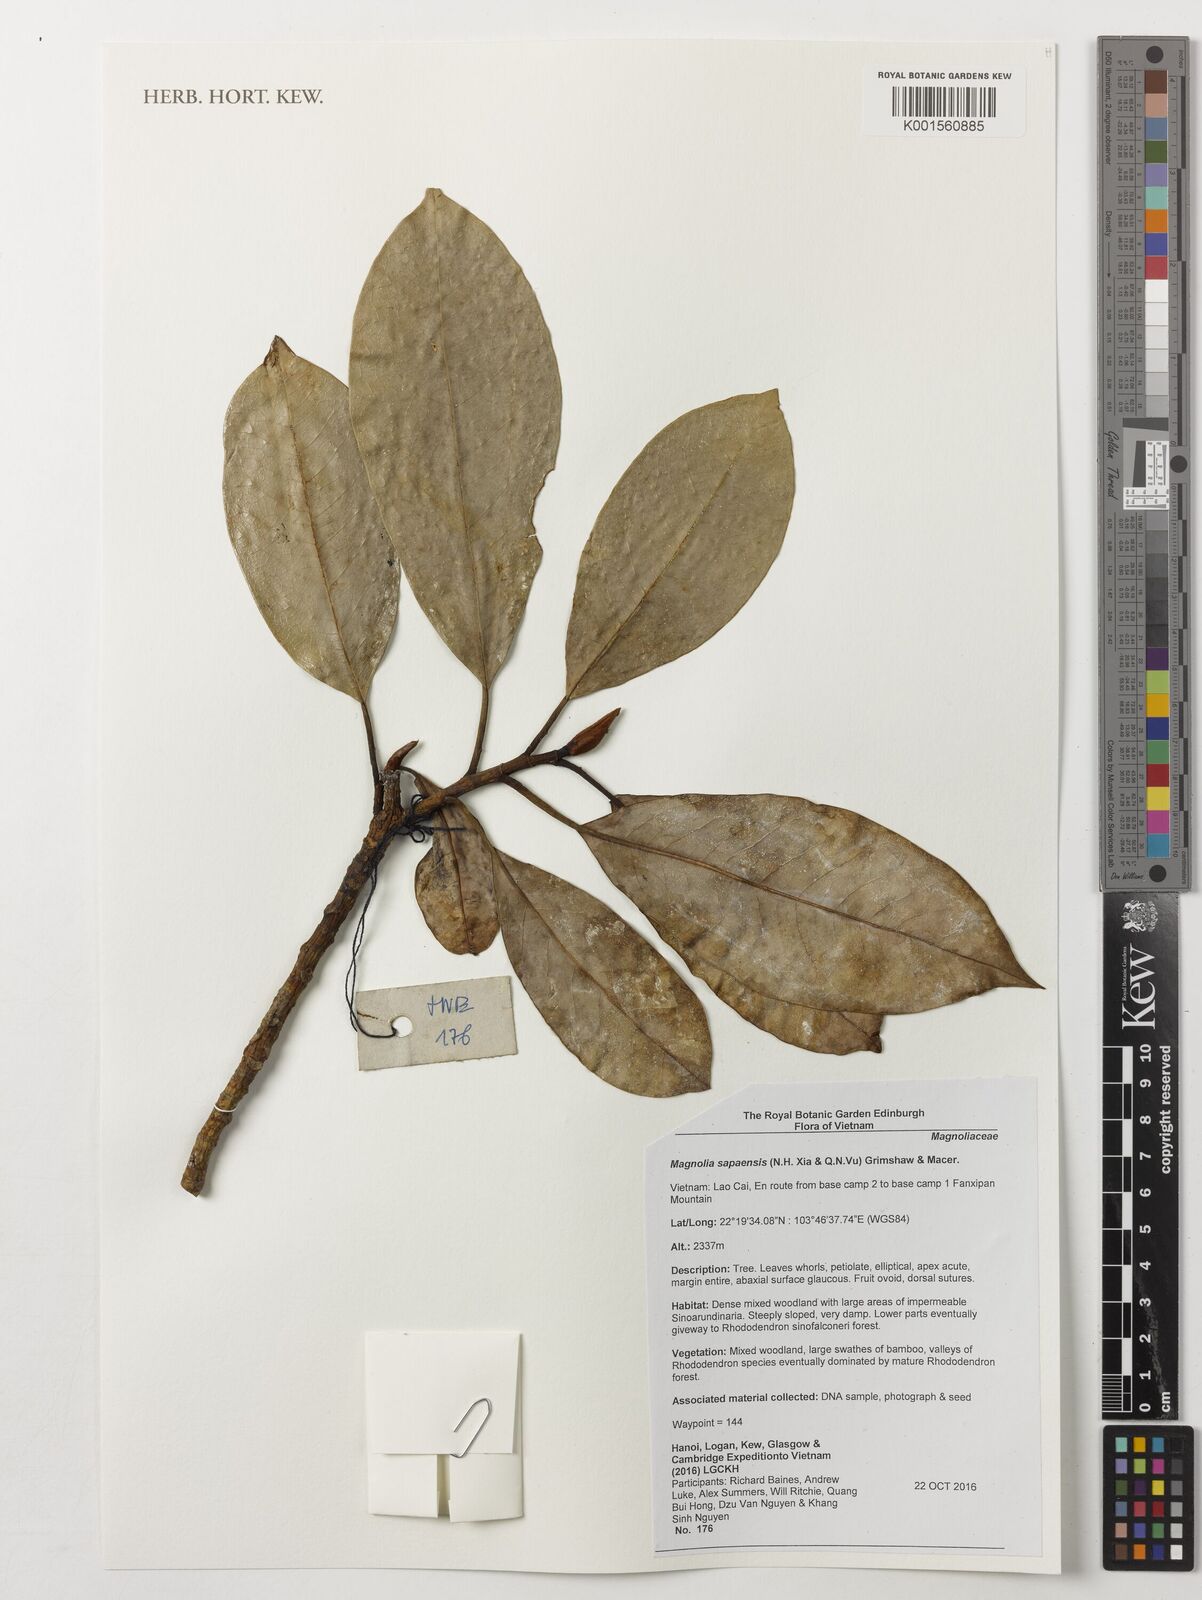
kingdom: Plantae
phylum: Tracheophyta
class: Magnoliopsida
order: Magnoliales
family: Magnoliaceae
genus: Magnolia
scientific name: Magnolia sapaensis
